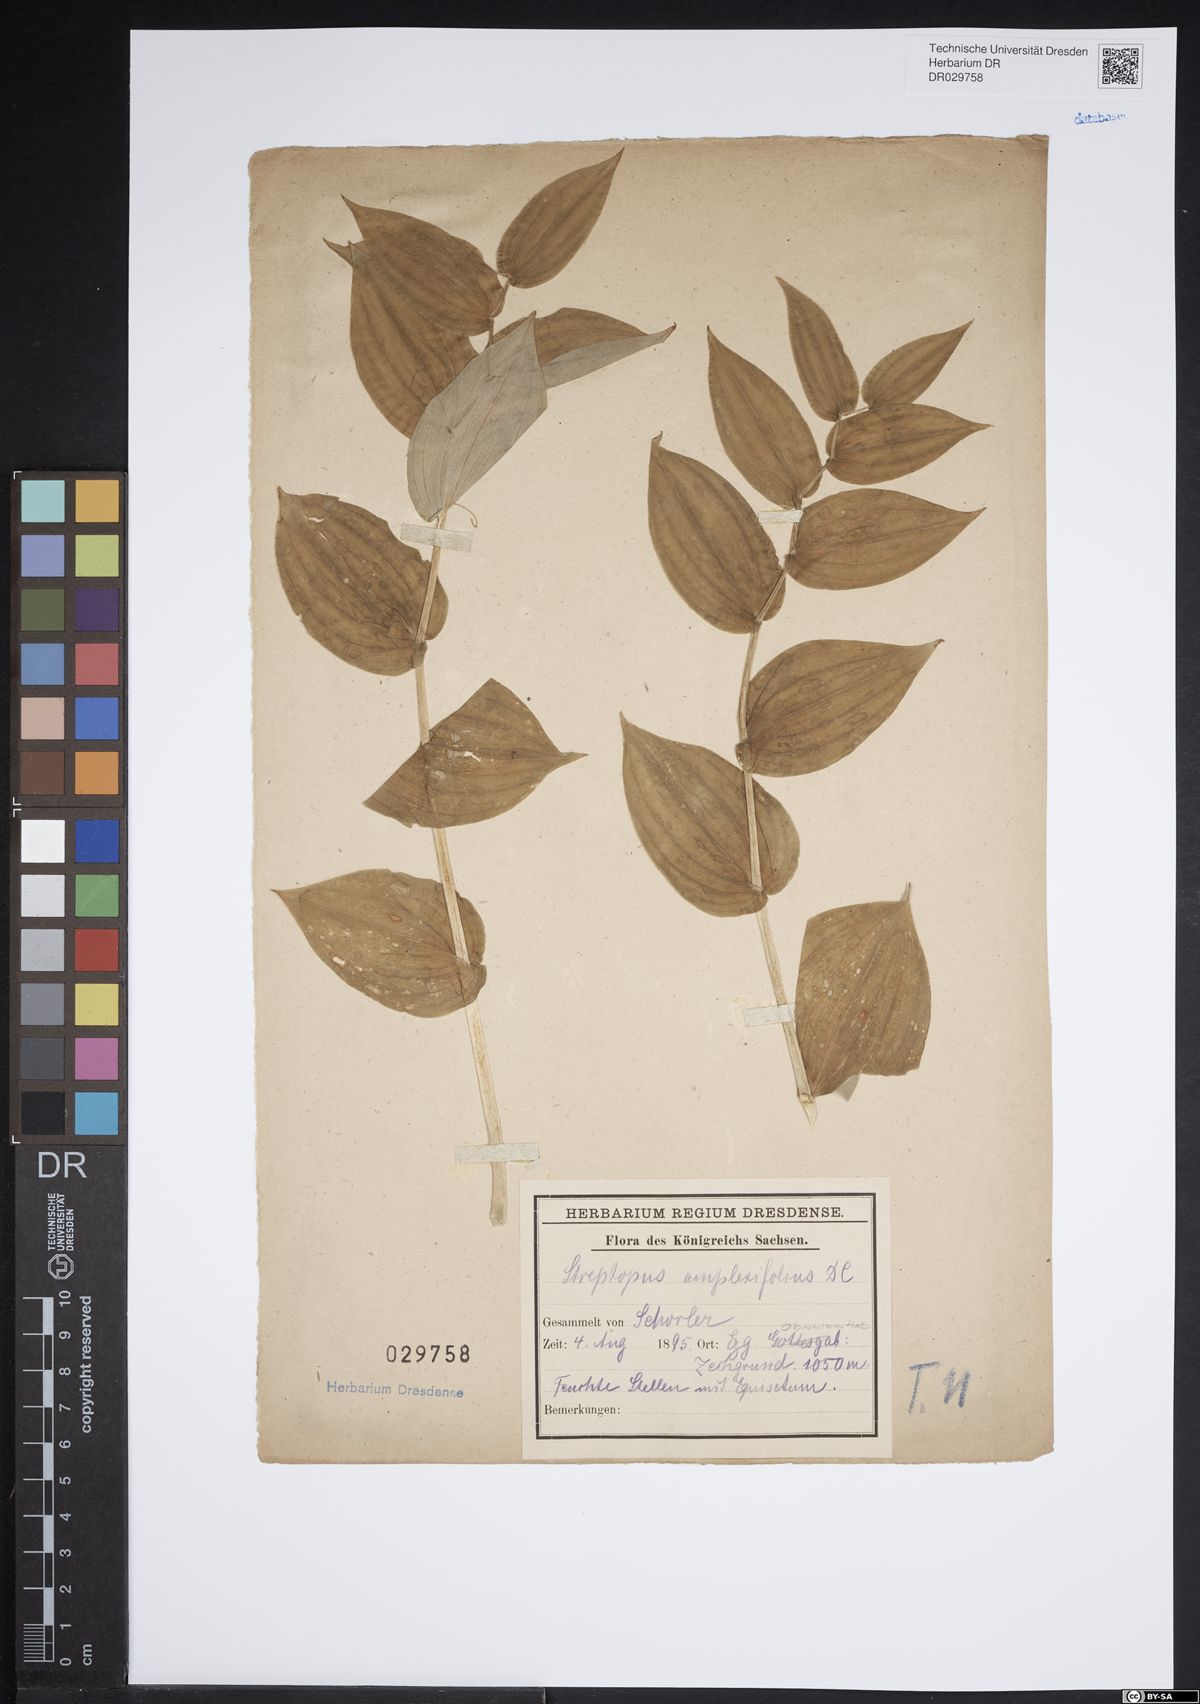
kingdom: Plantae
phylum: Tracheophyta
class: Liliopsida
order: Liliales
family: Liliaceae
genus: Streptopus
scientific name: Streptopus amplexifolius
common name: Clasp twisted stalk
